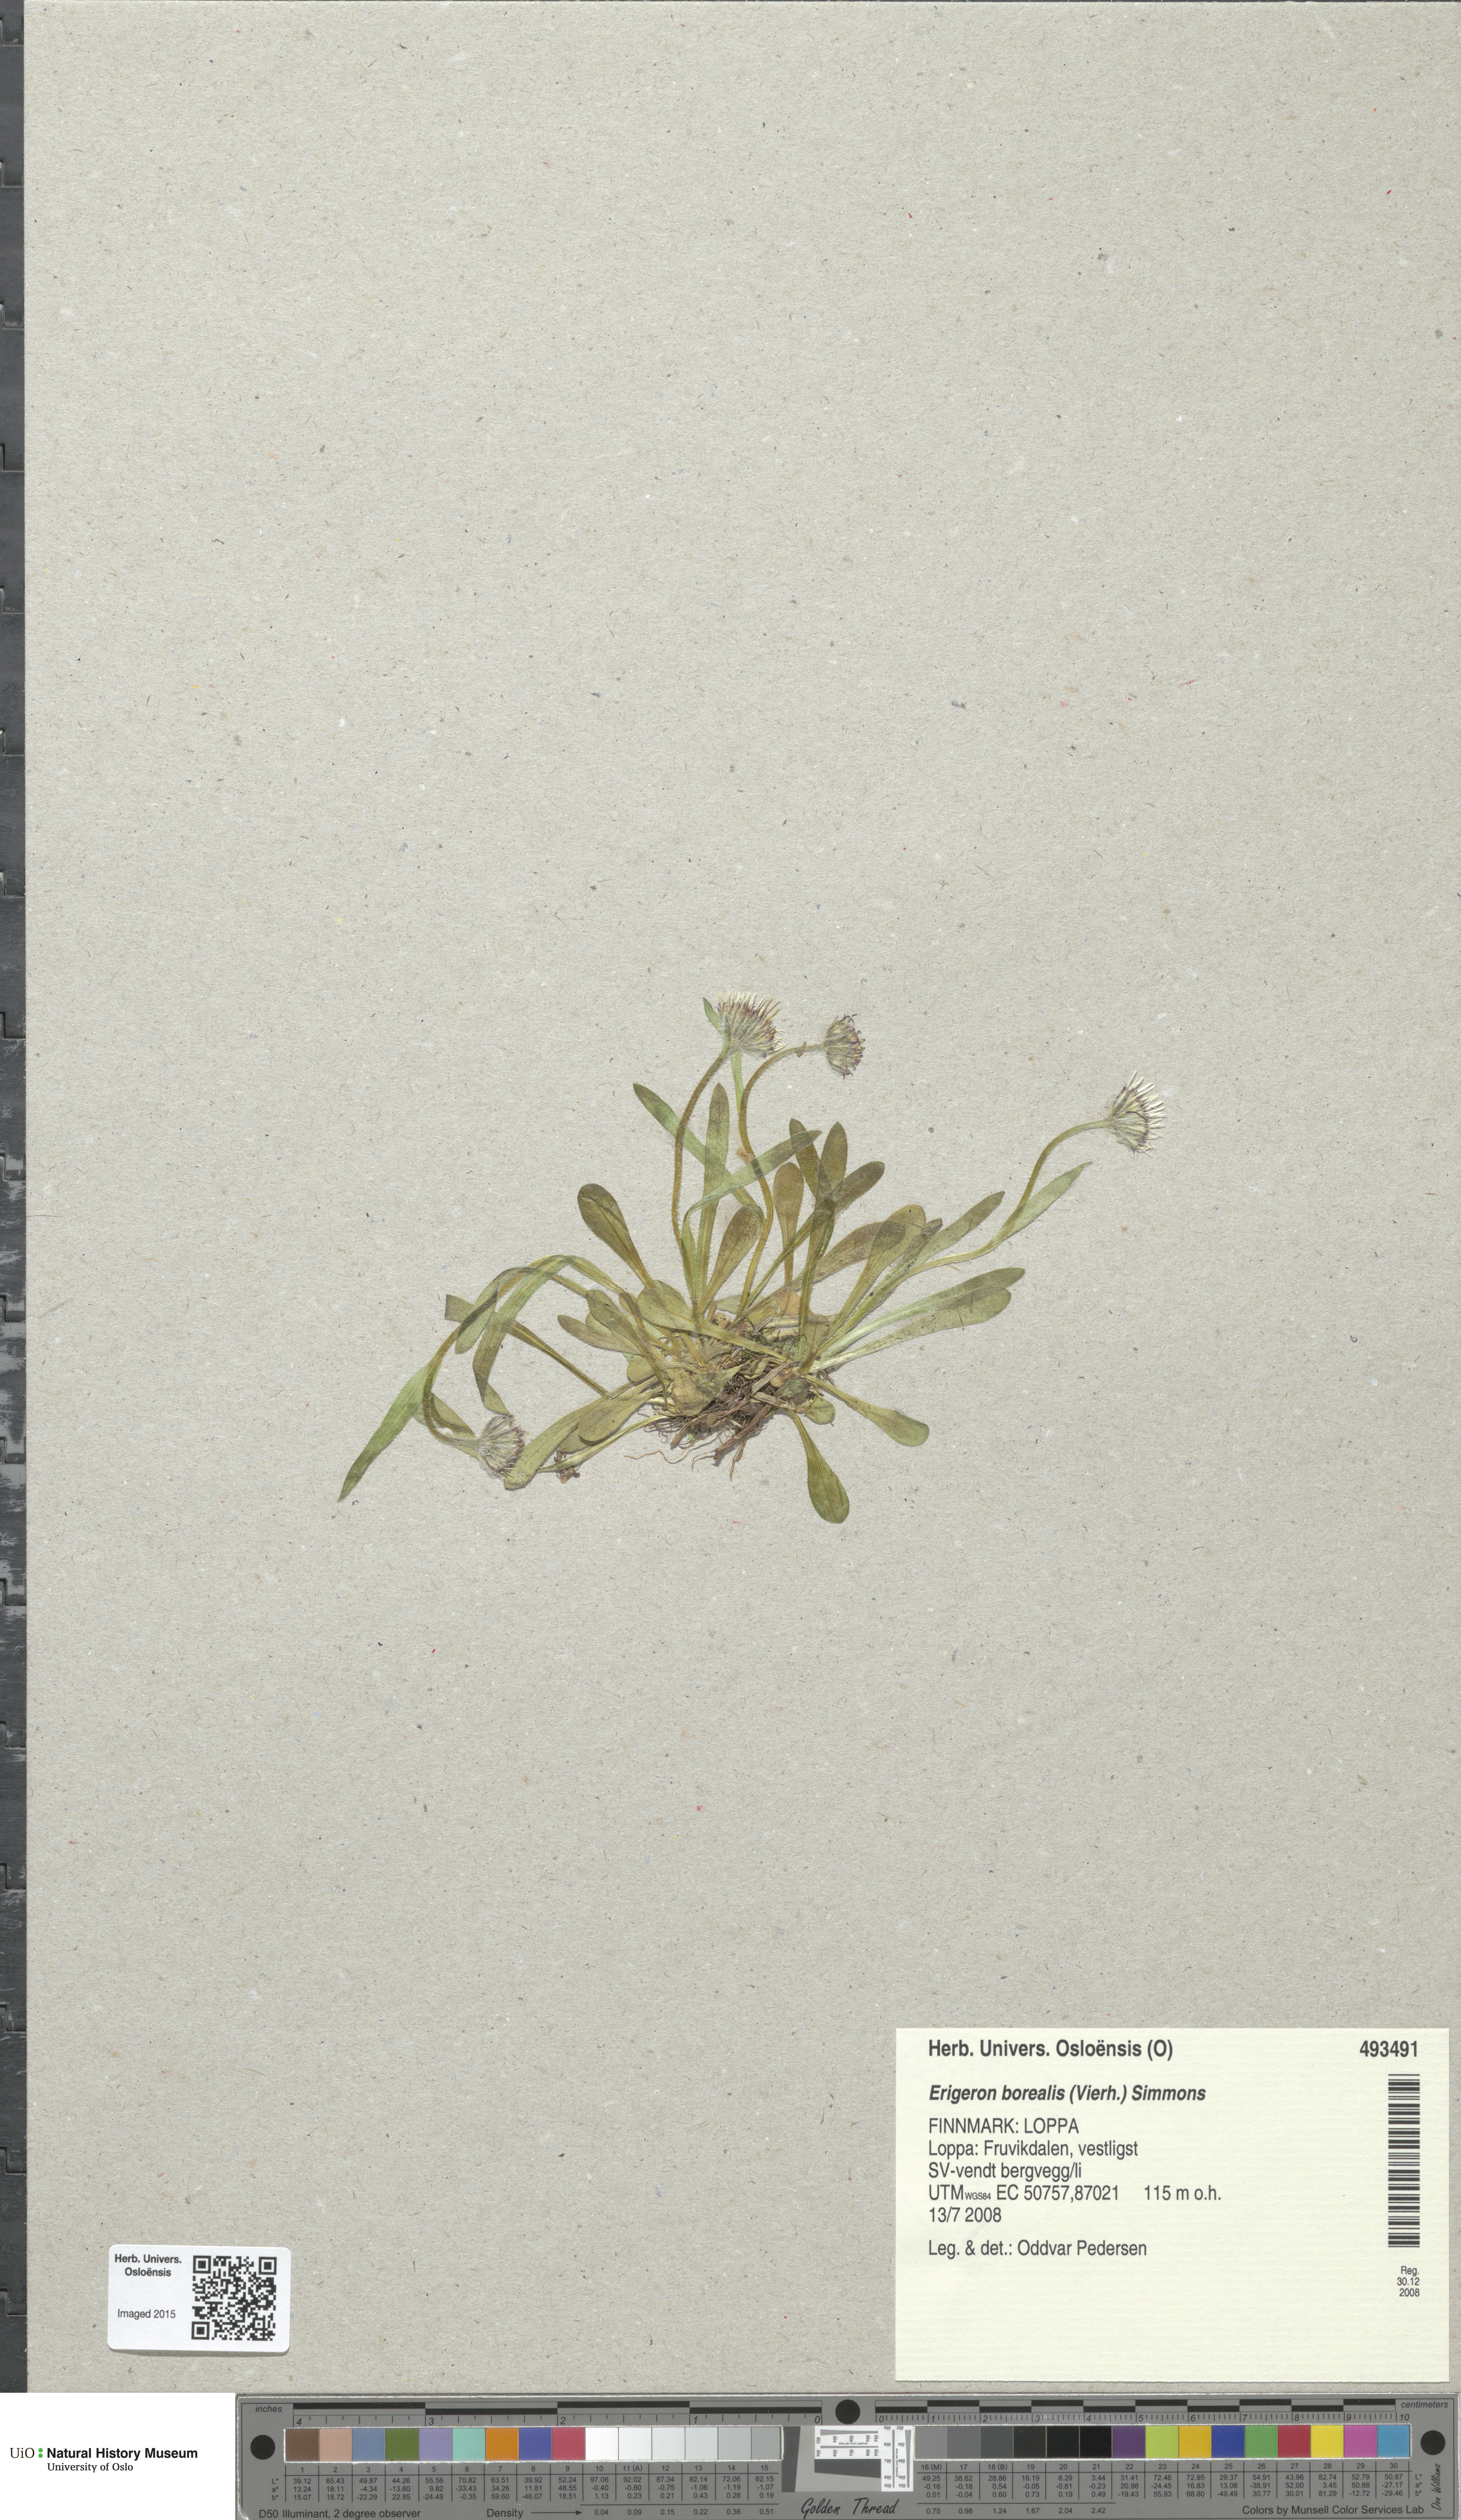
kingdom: Plantae
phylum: Tracheophyta
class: Magnoliopsida
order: Asterales
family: Asteraceae
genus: Erigeron
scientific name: Erigeron borealis
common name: Alpine fleabane
